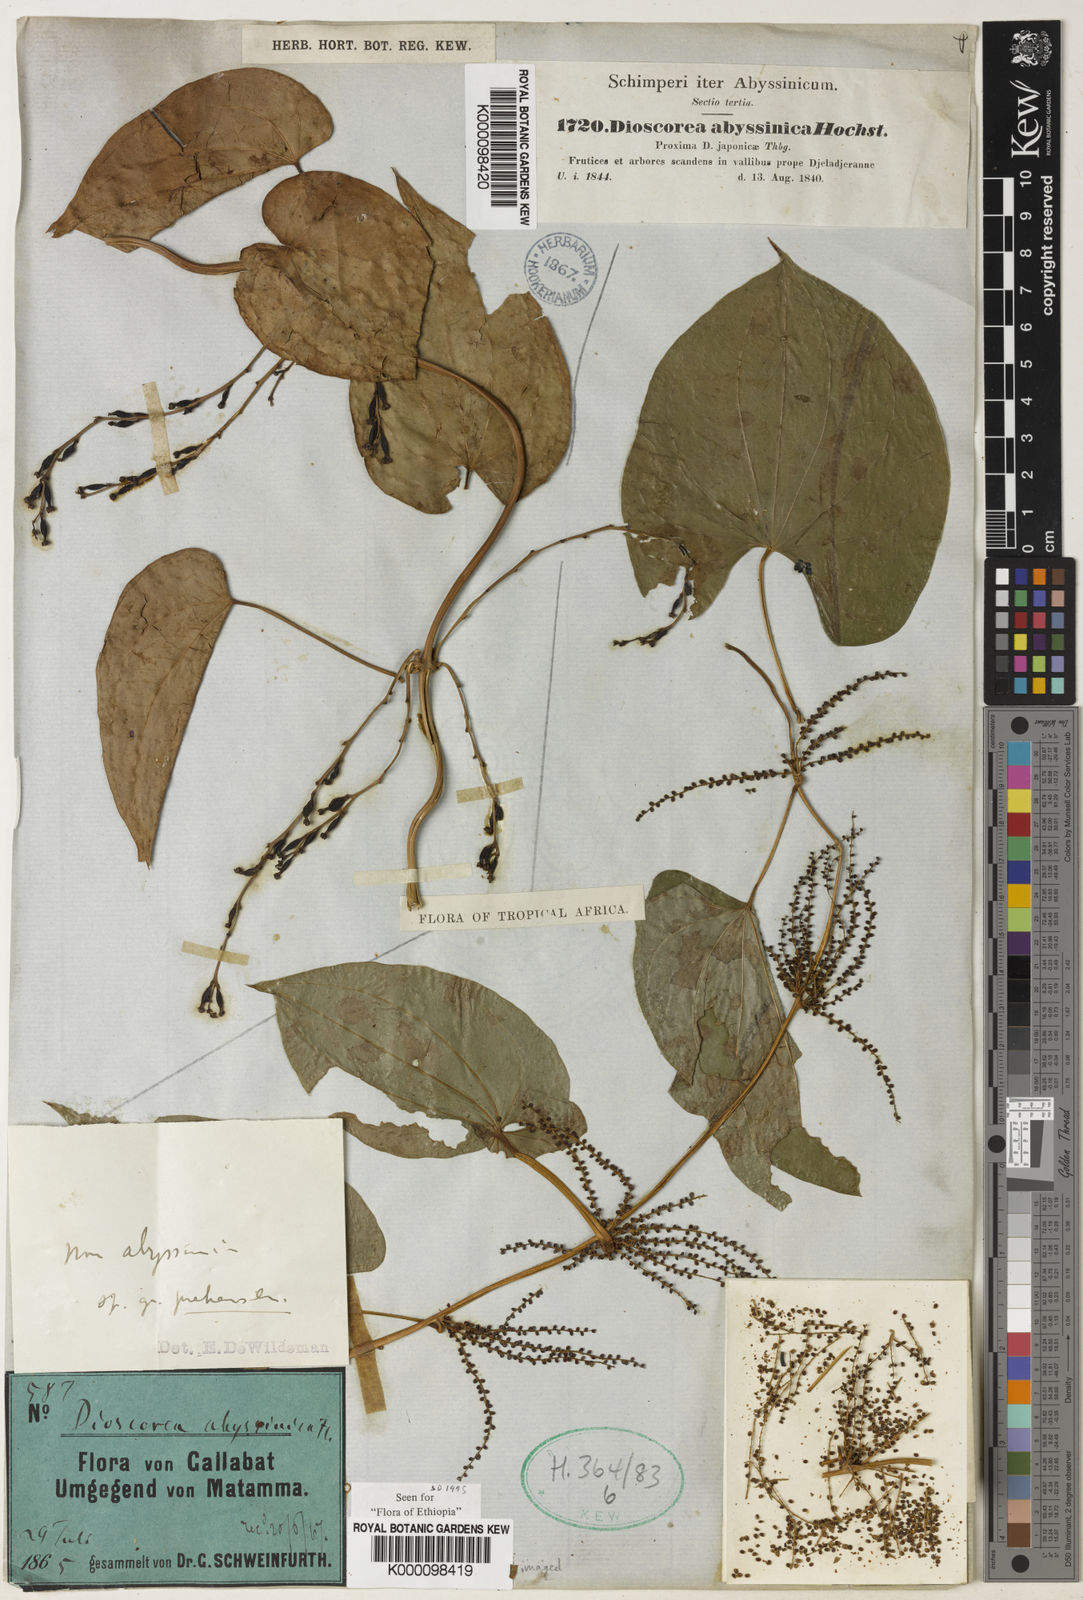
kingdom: Plantae
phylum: Tracheophyta
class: Liliopsida
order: Dioscoreales
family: Dioscoreaceae
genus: Dioscorea
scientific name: Dioscorea abyssinica
